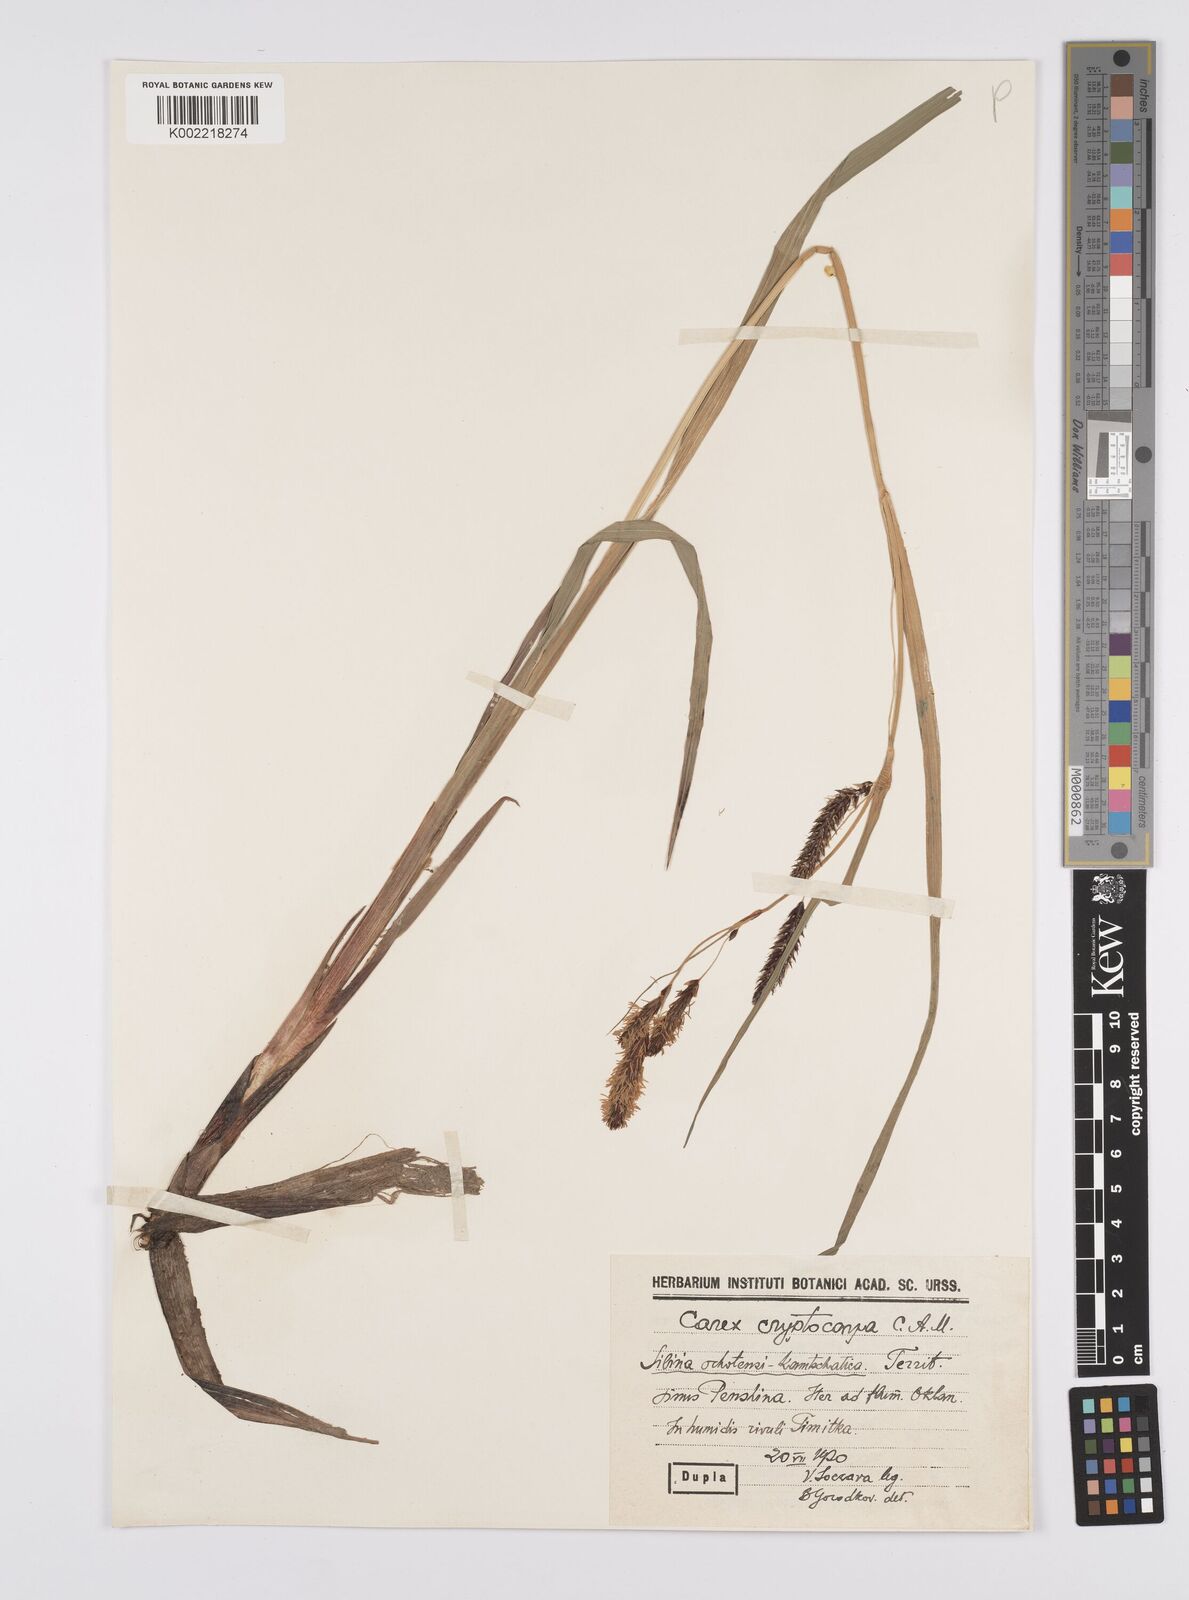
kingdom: Plantae
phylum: Tracheophyta
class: Liliopsida
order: Poales
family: Cyperaceae
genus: Carex
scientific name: Carex lyngbyei
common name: Lyngbye's sedge
